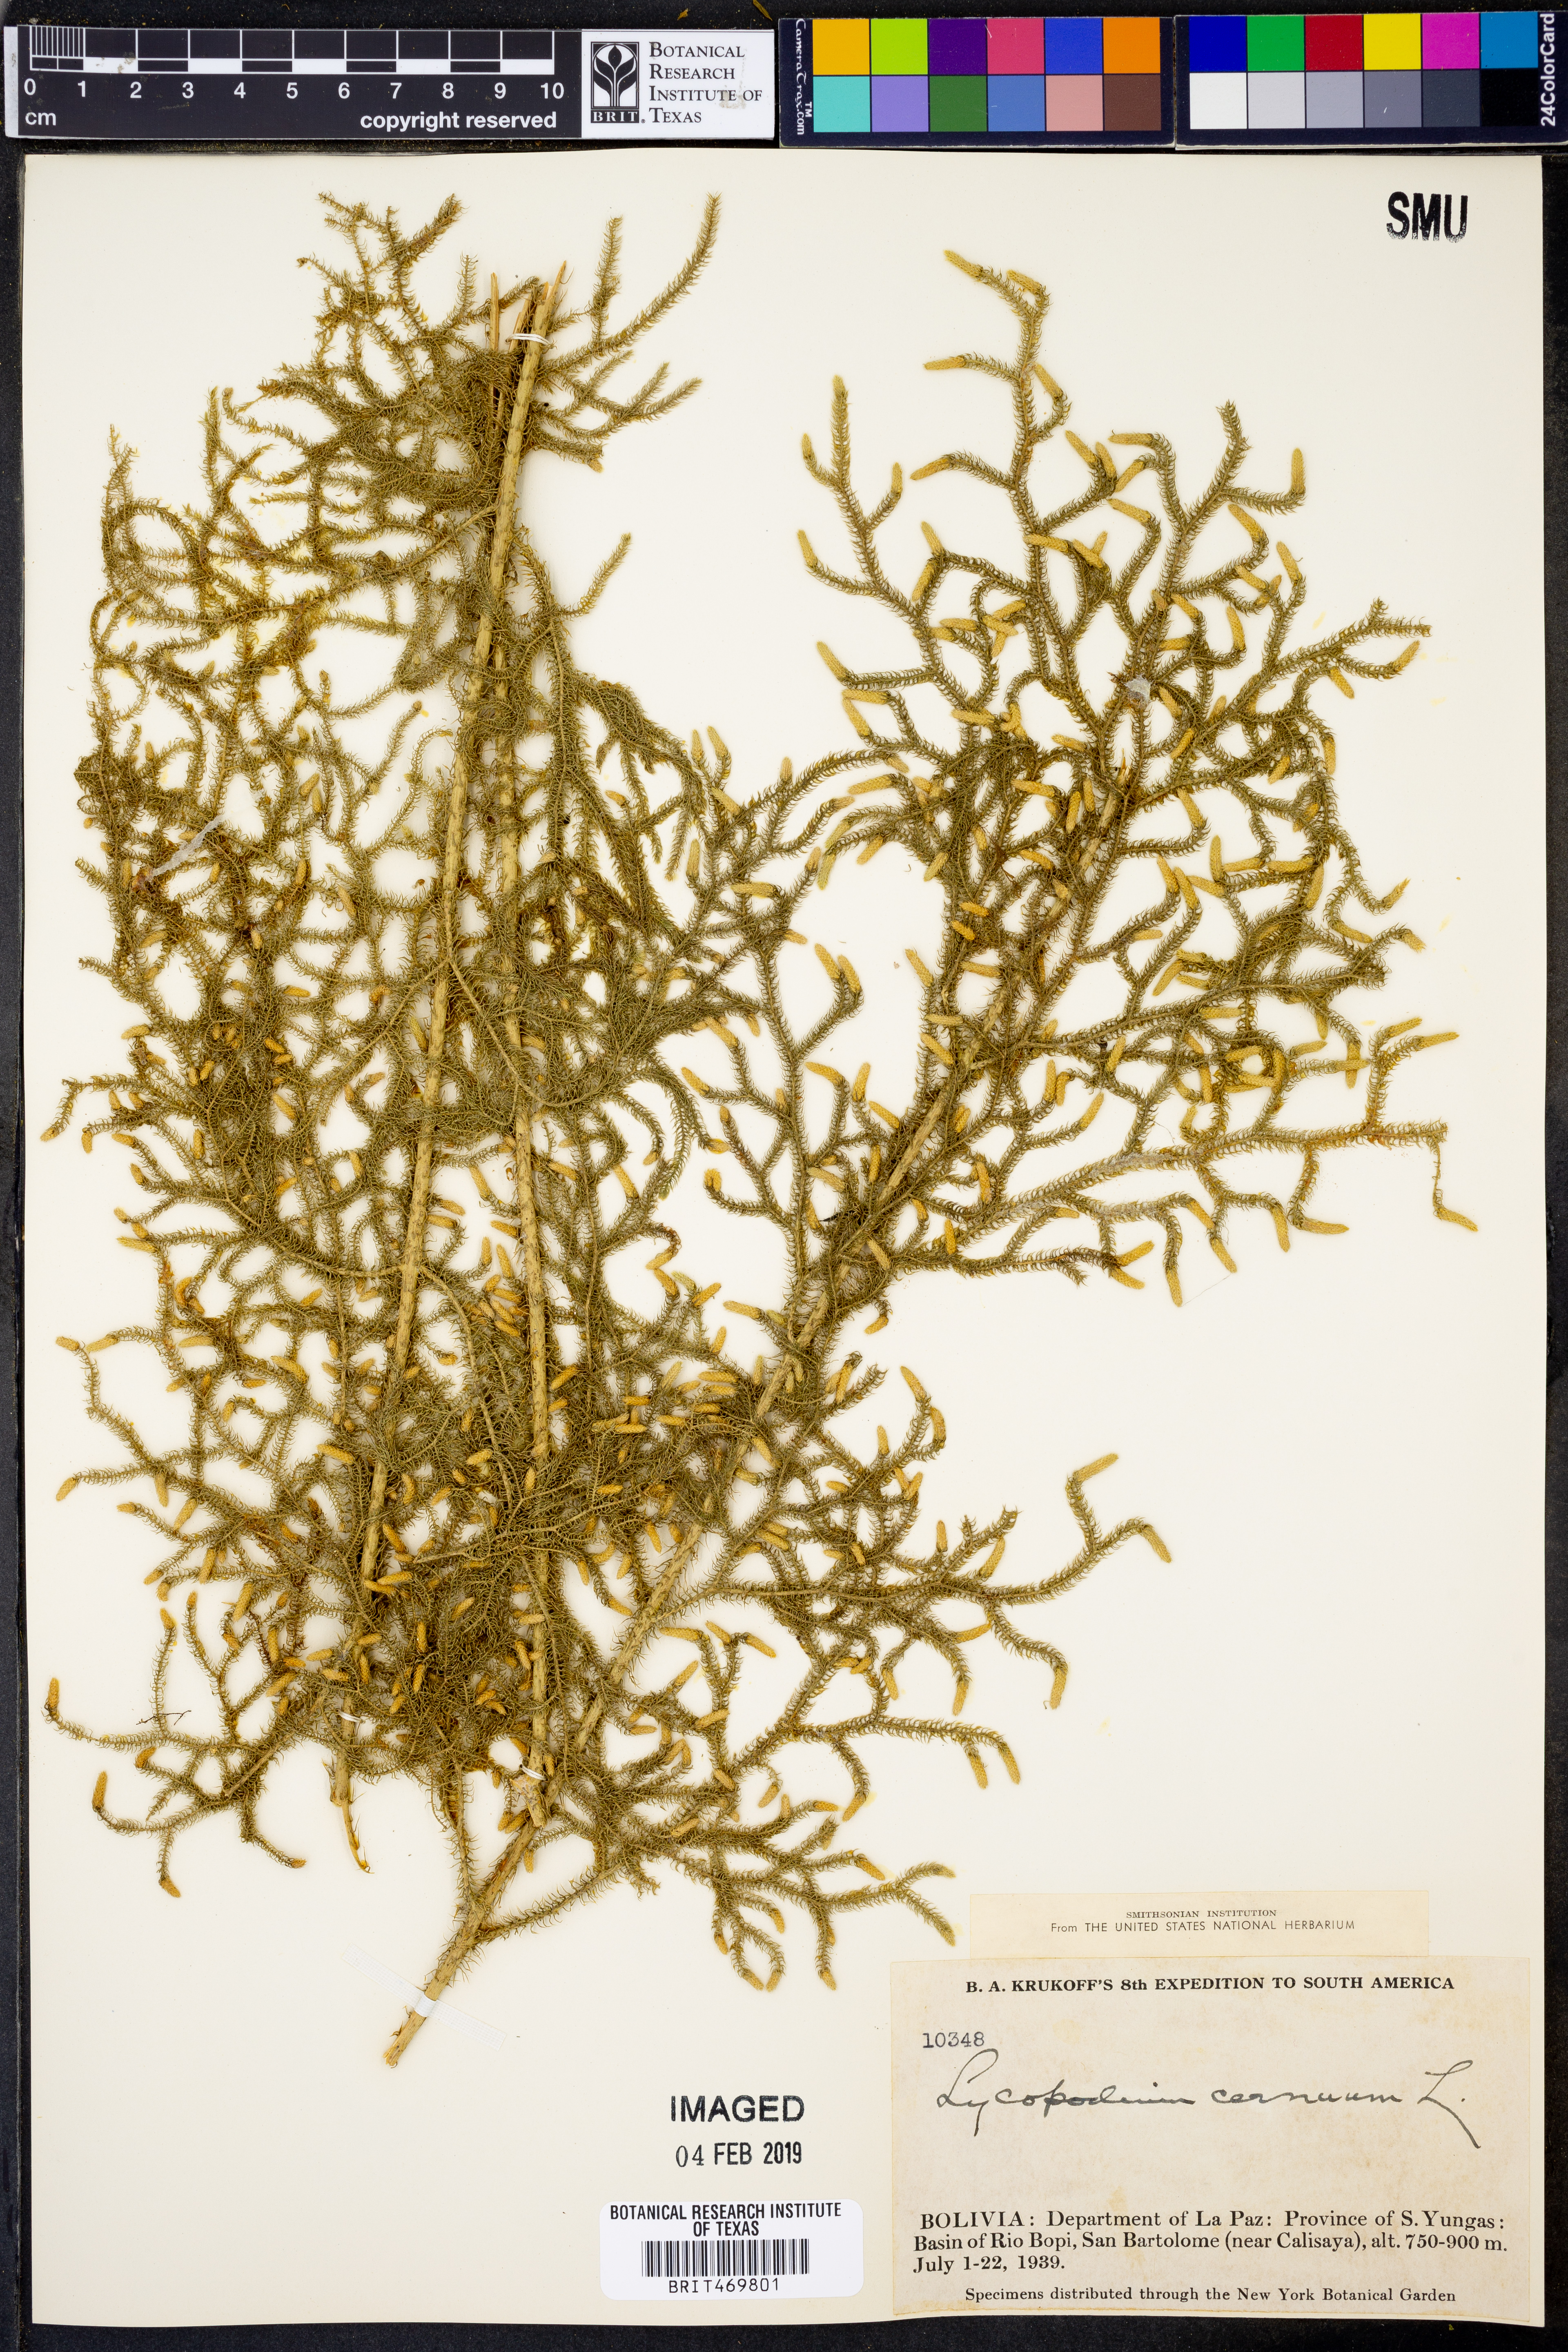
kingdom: Plantae
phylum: Tracheophyta
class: Lycopodiopsida
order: Lycopodiales
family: Lycopodiaceae
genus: Palhinhaea
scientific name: Palhinhaea cernua
